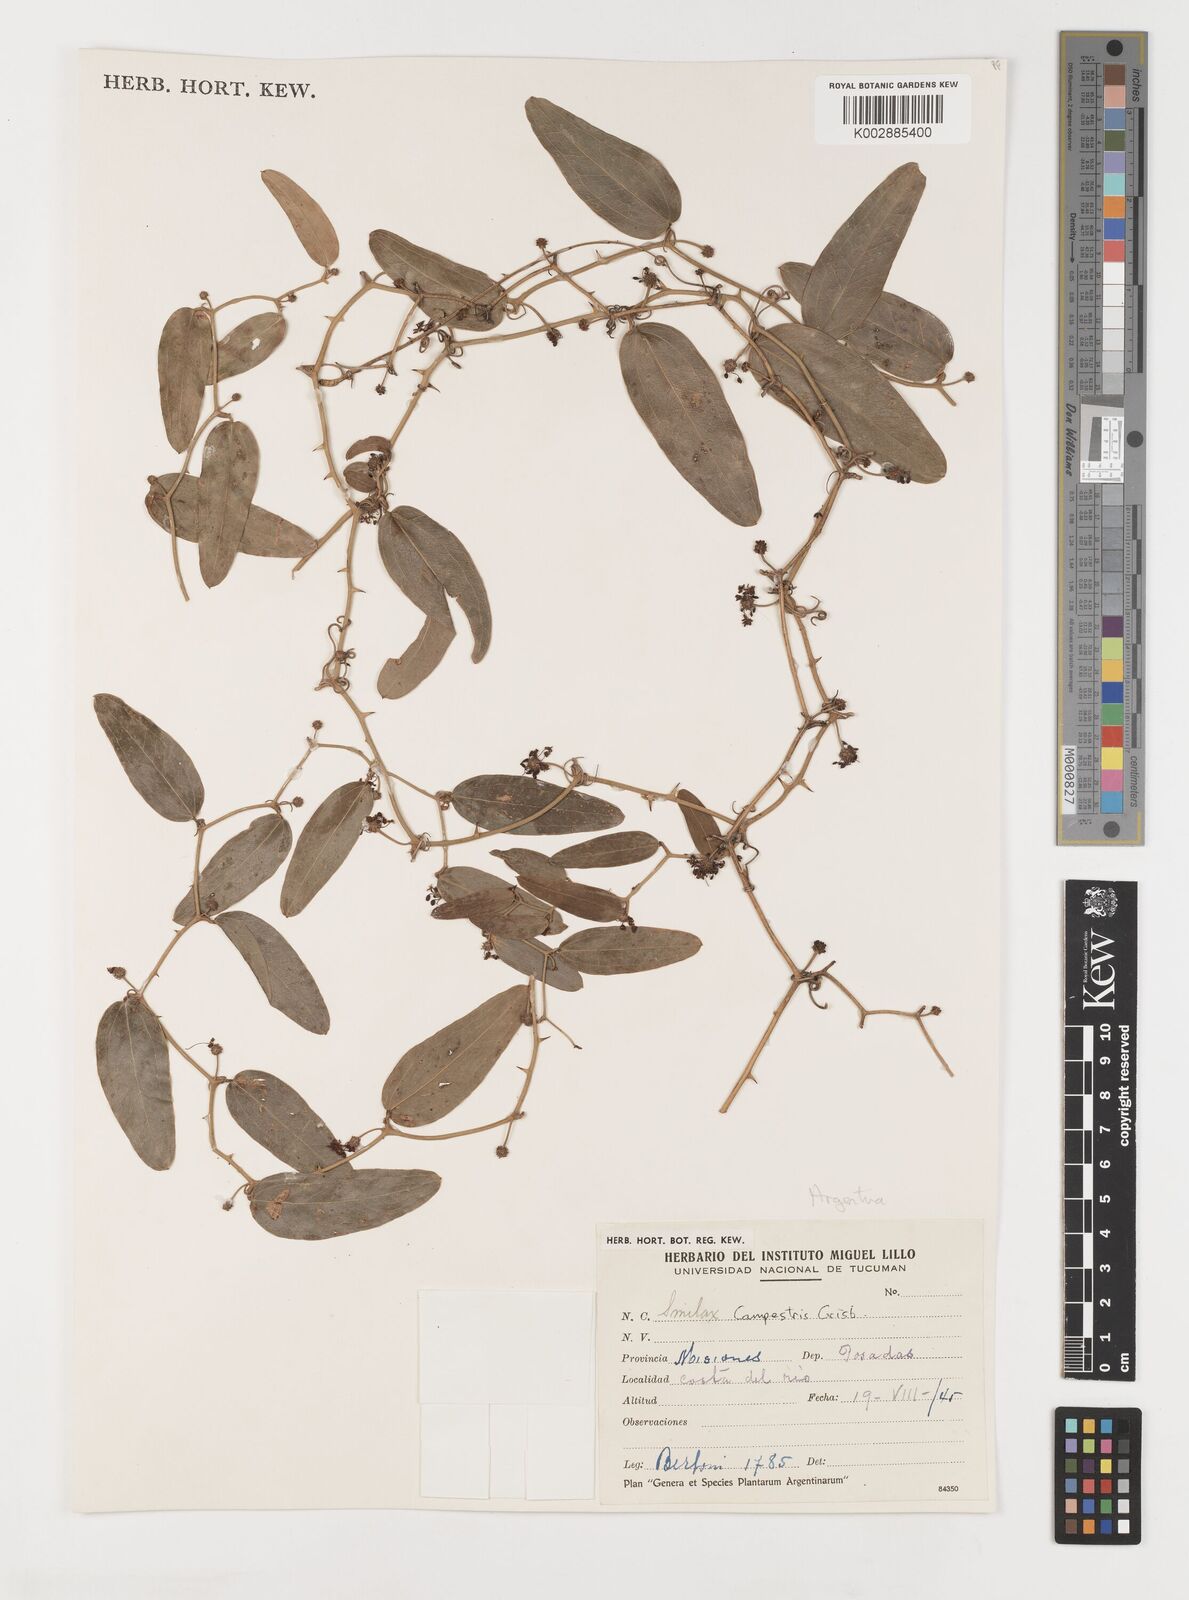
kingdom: Plantae
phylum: Tracheophyta
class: Liliopsida
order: Liliales
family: Smilacaceae
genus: Smilax
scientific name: Smilax campestris
